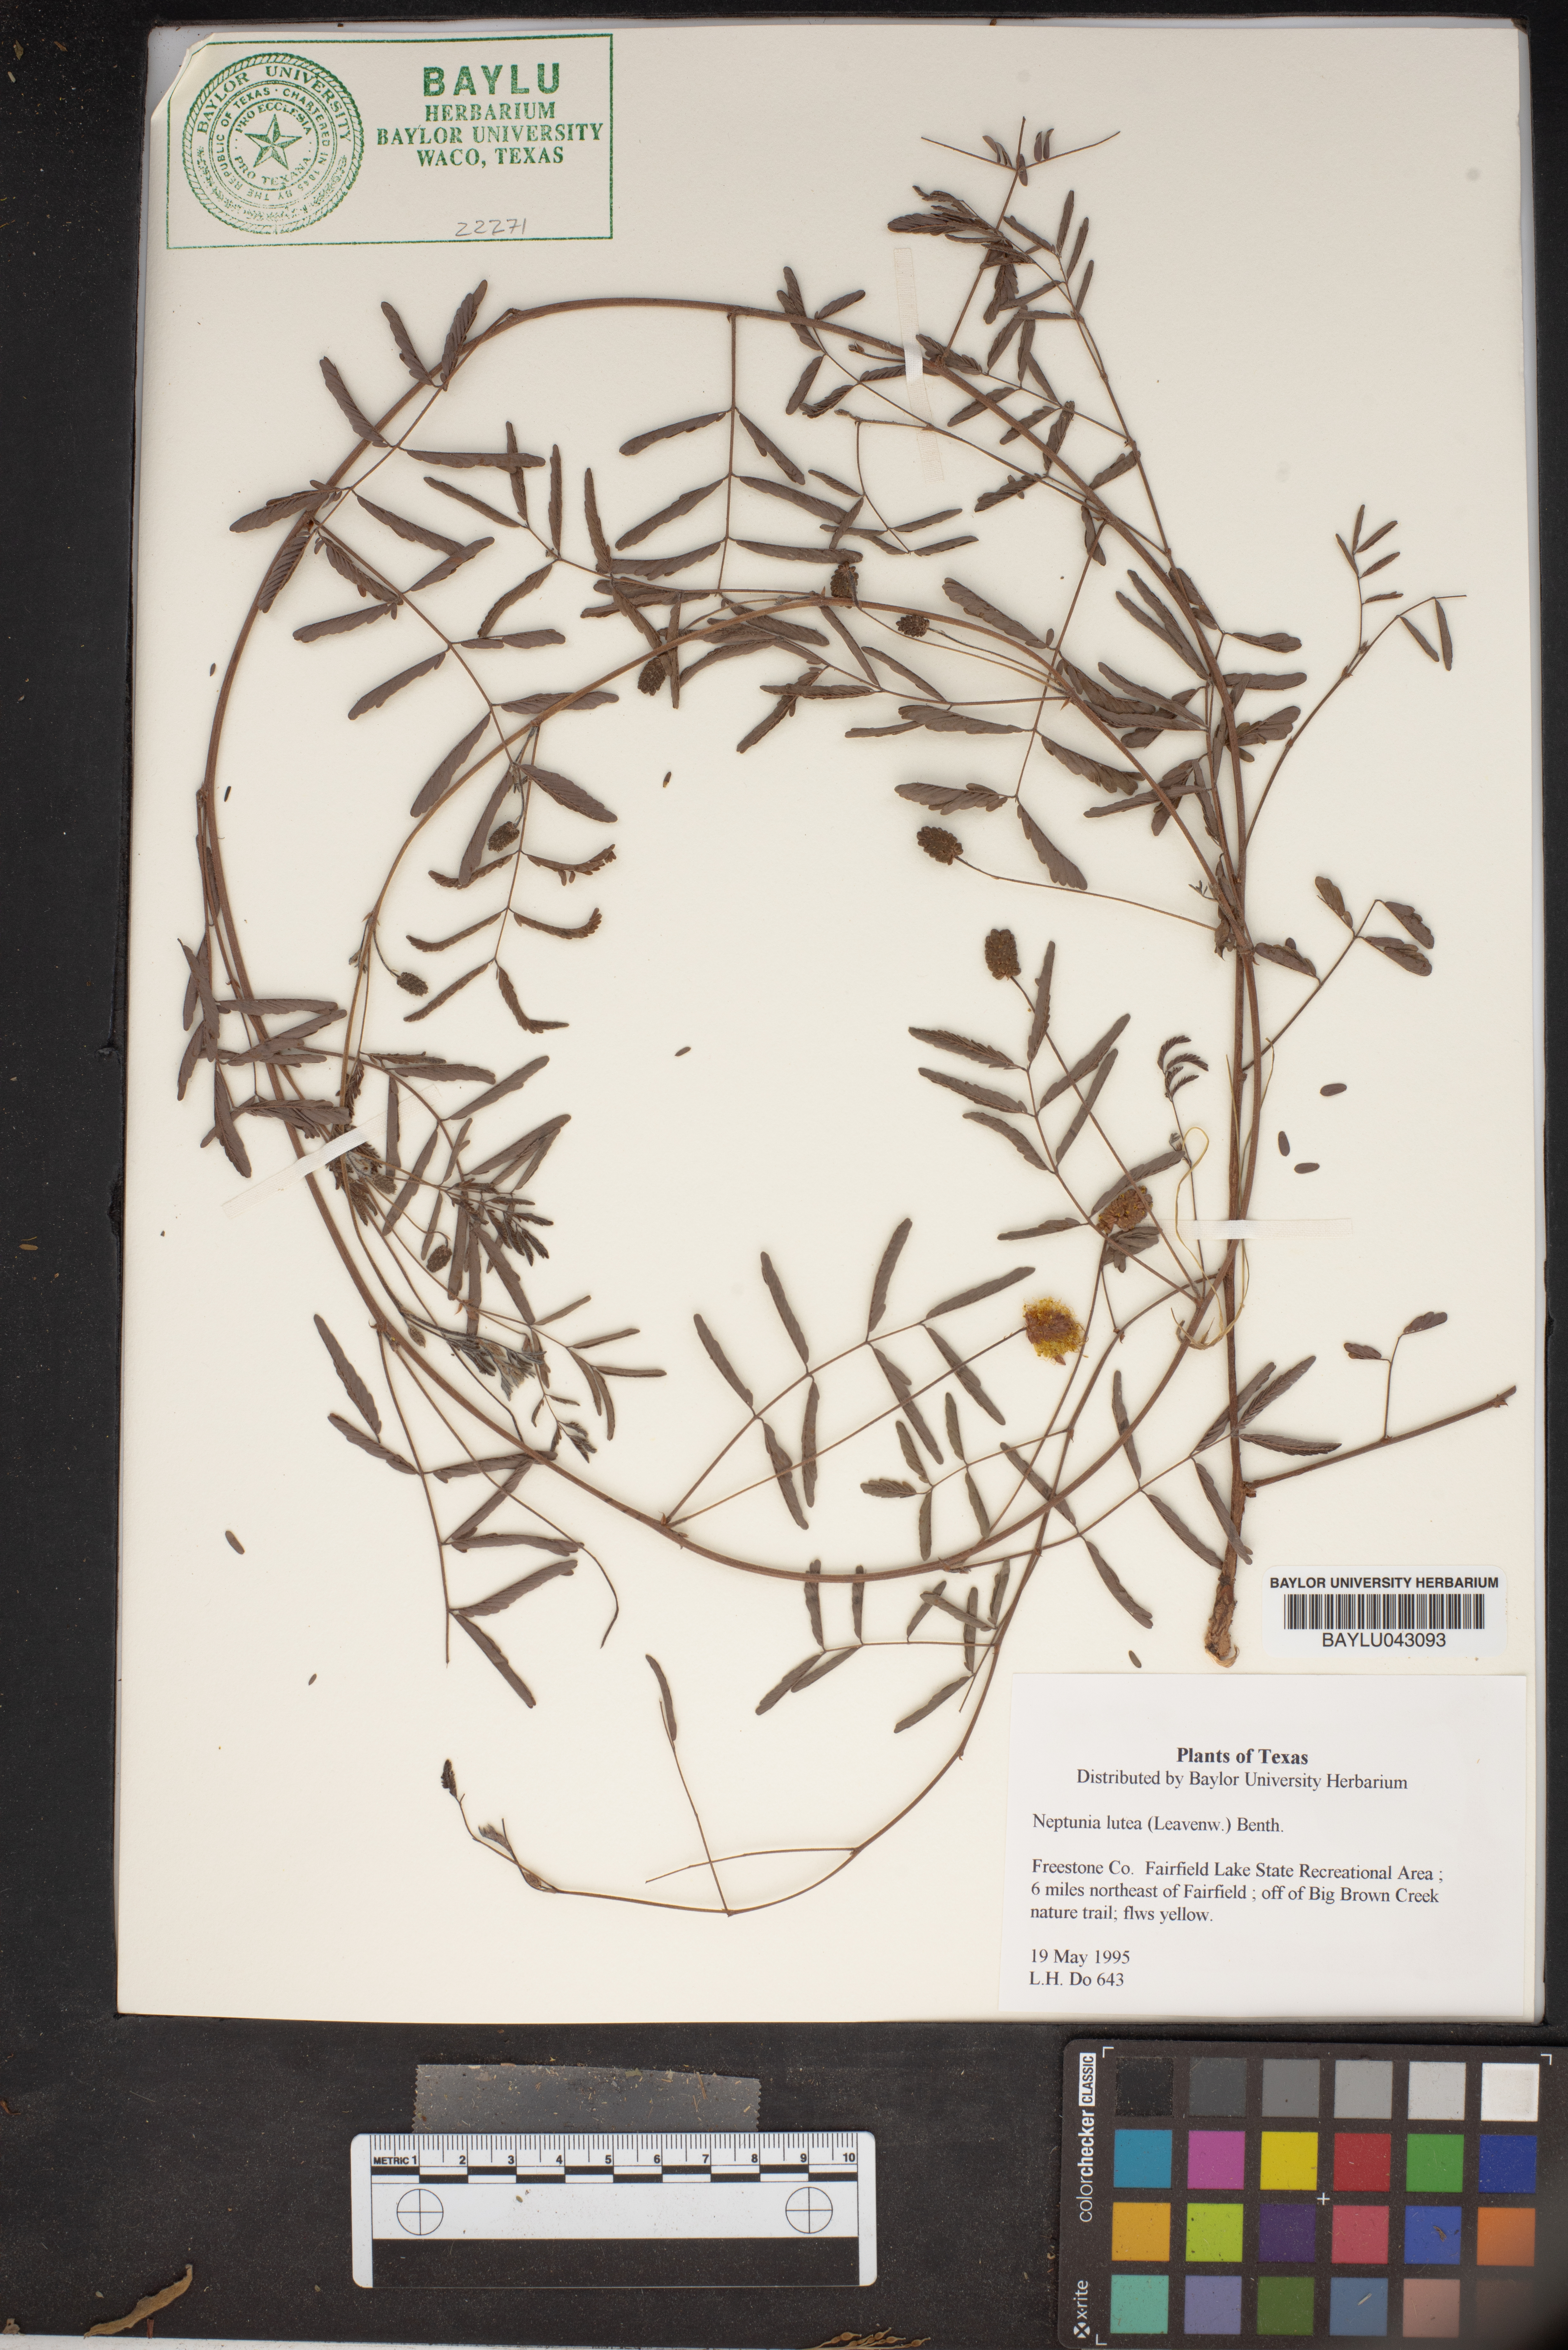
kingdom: Plantae
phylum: Tracheophyta
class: Magnoliopsida
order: Fabales
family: Fabaceae
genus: Neptunia
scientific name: Neptunia lutea
